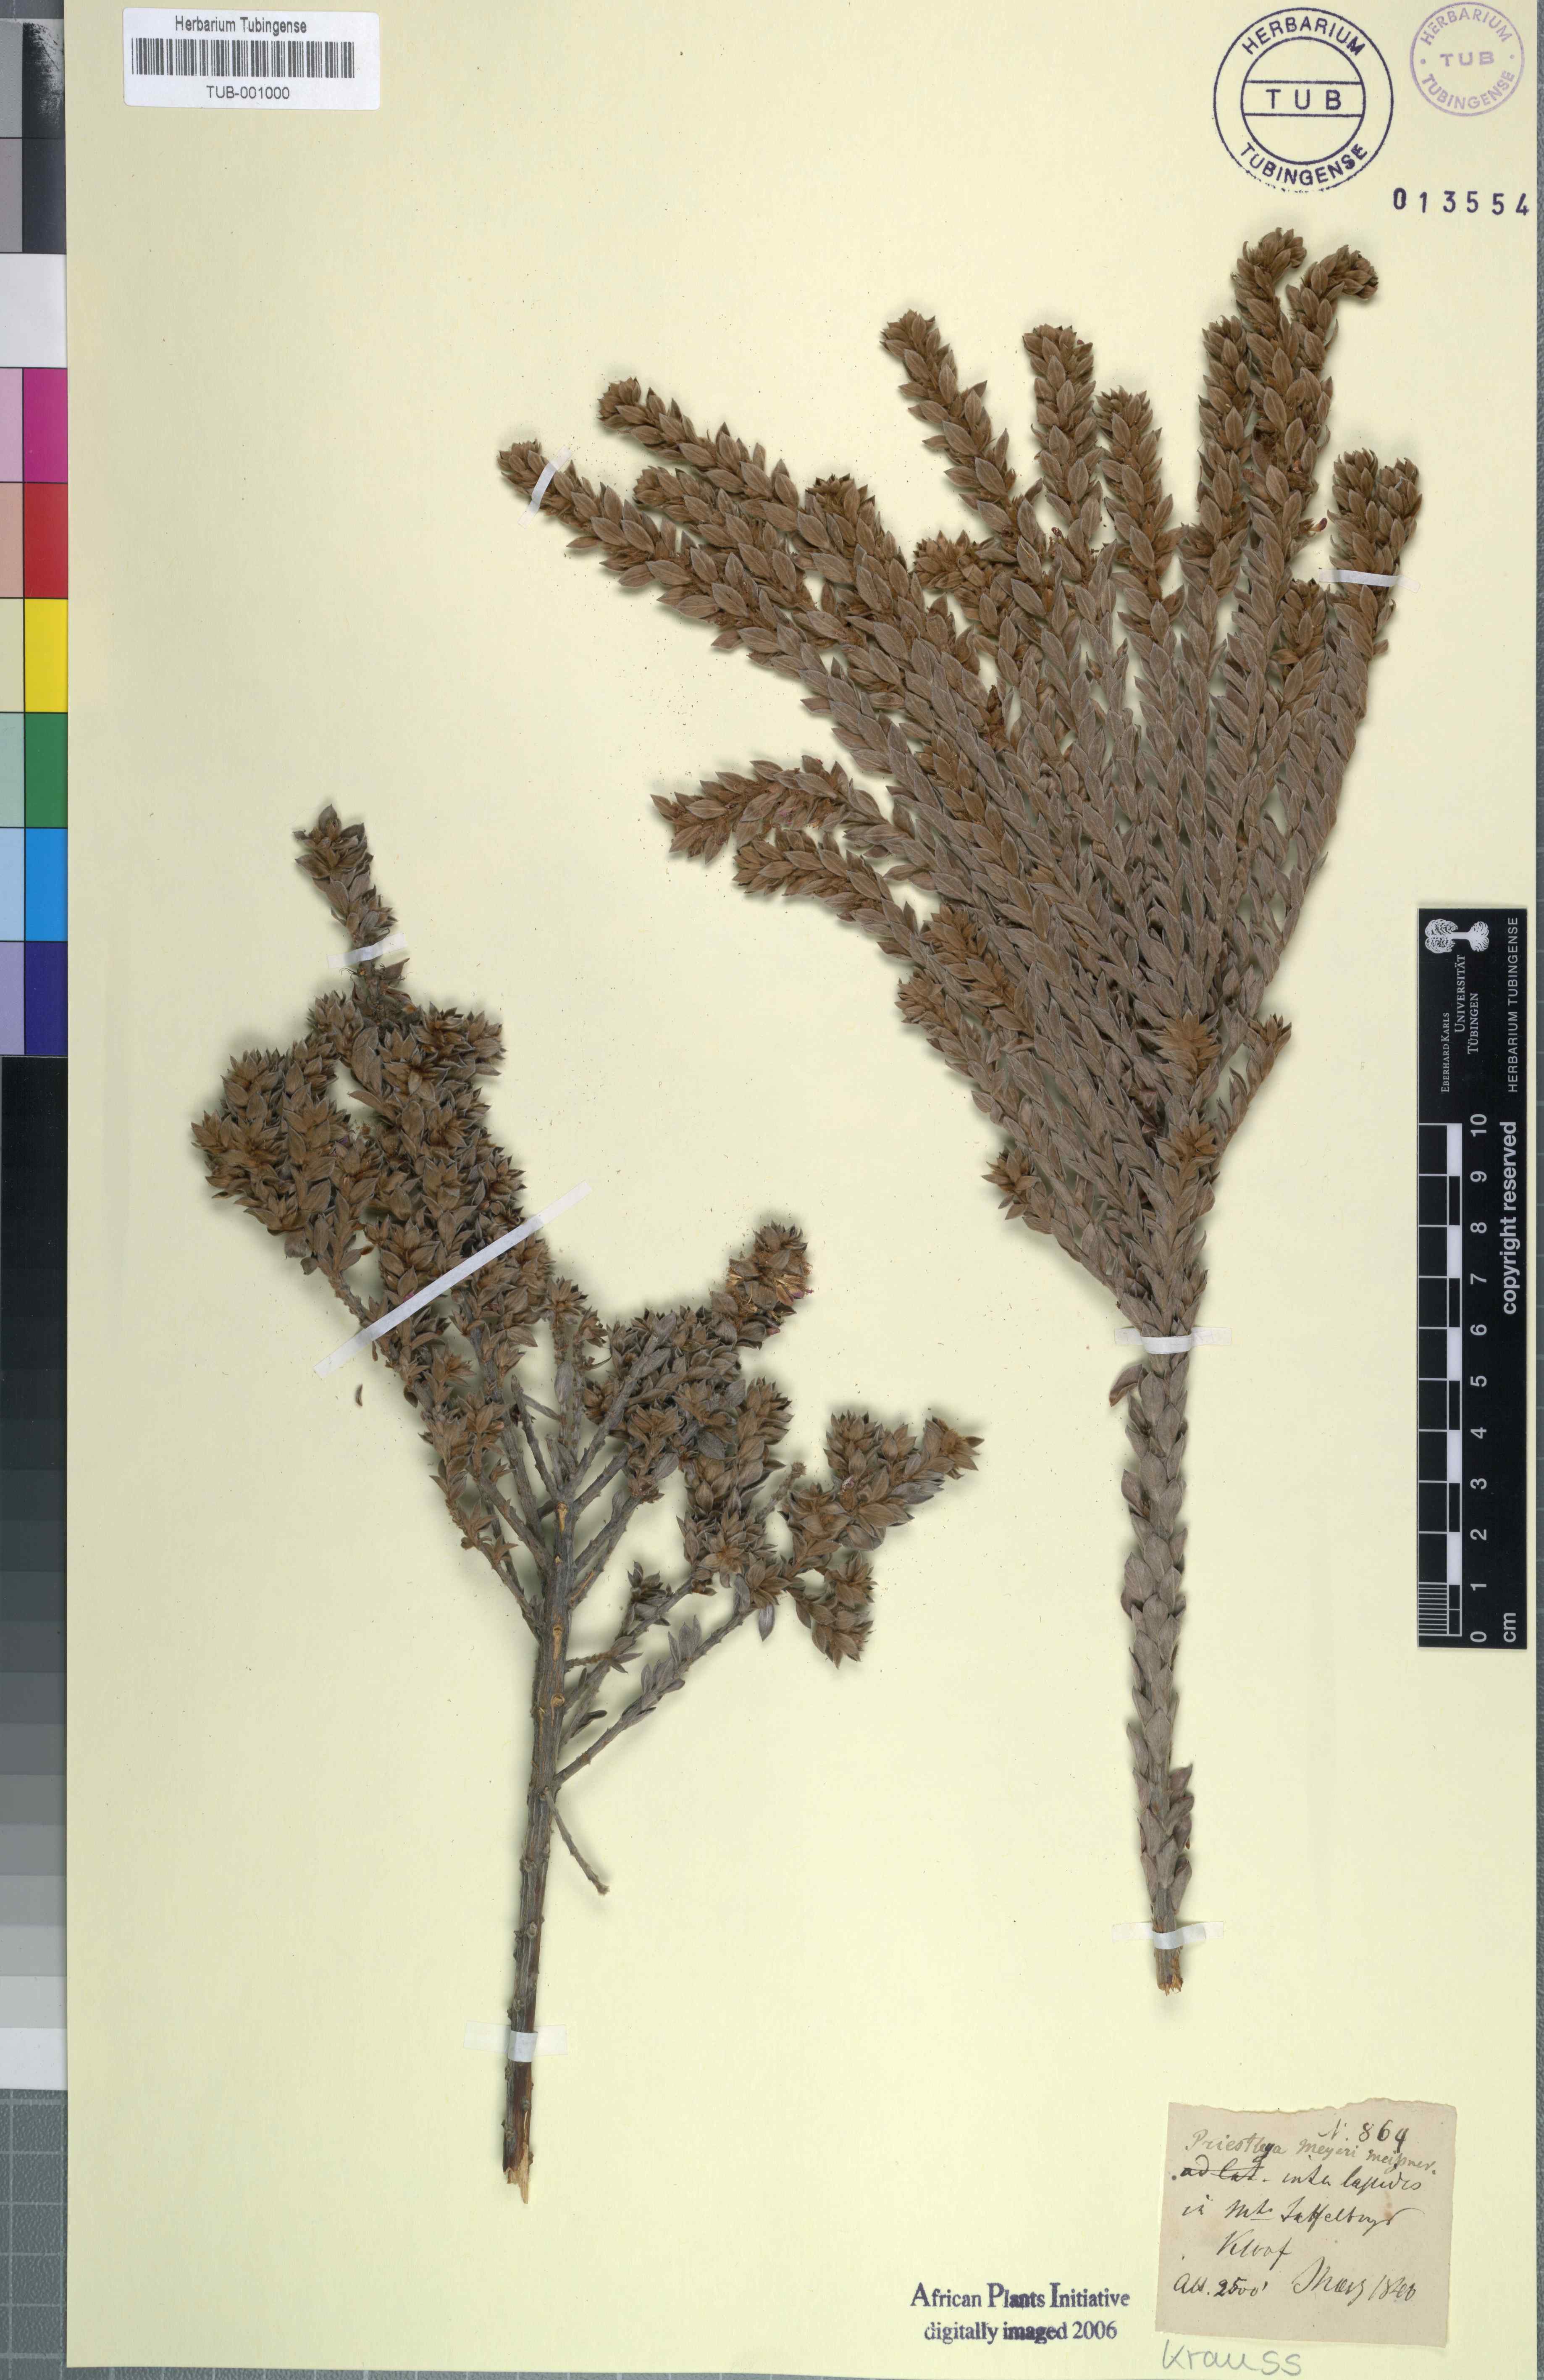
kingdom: Plantae
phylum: Tracheophyta
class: Magnoliopsida
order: Fabales
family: Fabaceae
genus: Amphithalea
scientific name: Amphithalea imbricata
